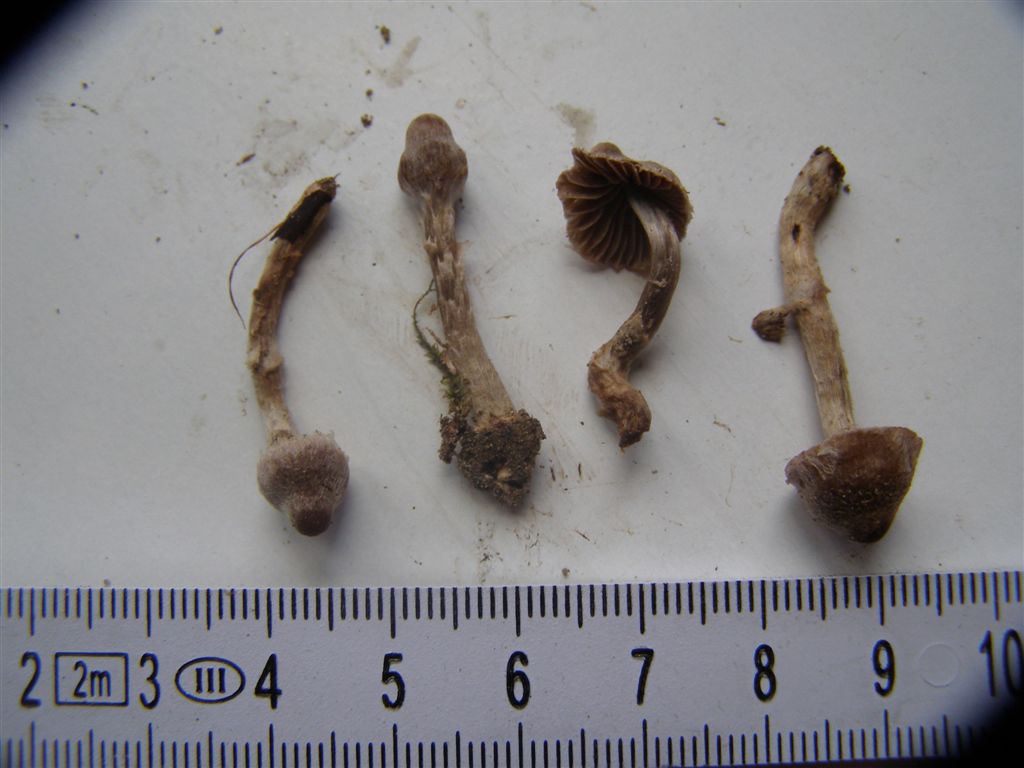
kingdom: Fungi
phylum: Basidiomycota
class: Agaricomycetes
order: Agaricales
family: Cortinariaceae
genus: Cortinarius
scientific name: Cortinarius griseocarneus
